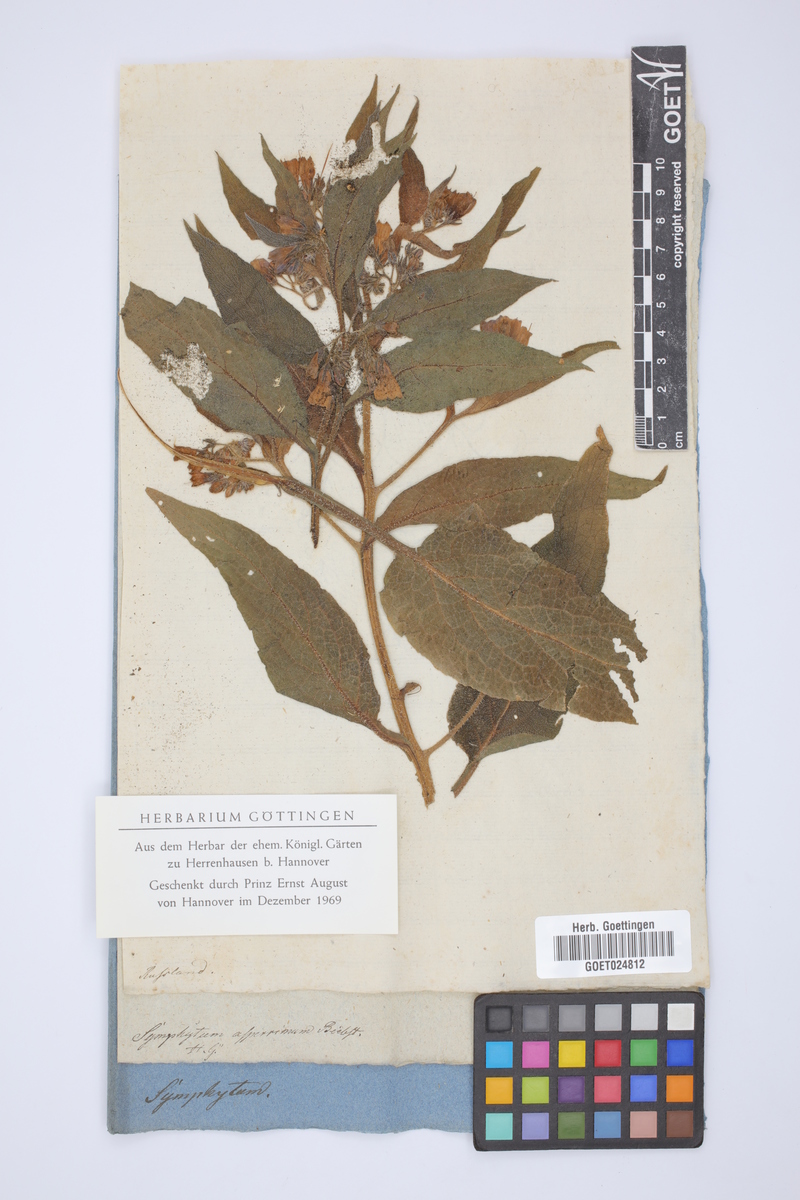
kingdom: Plantae
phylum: Tracheophyta
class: Magnoliopsida
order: Boraginales
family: Boraginaceae
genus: Symphytum
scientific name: Symphytum asperum
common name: Prickly comfrey
